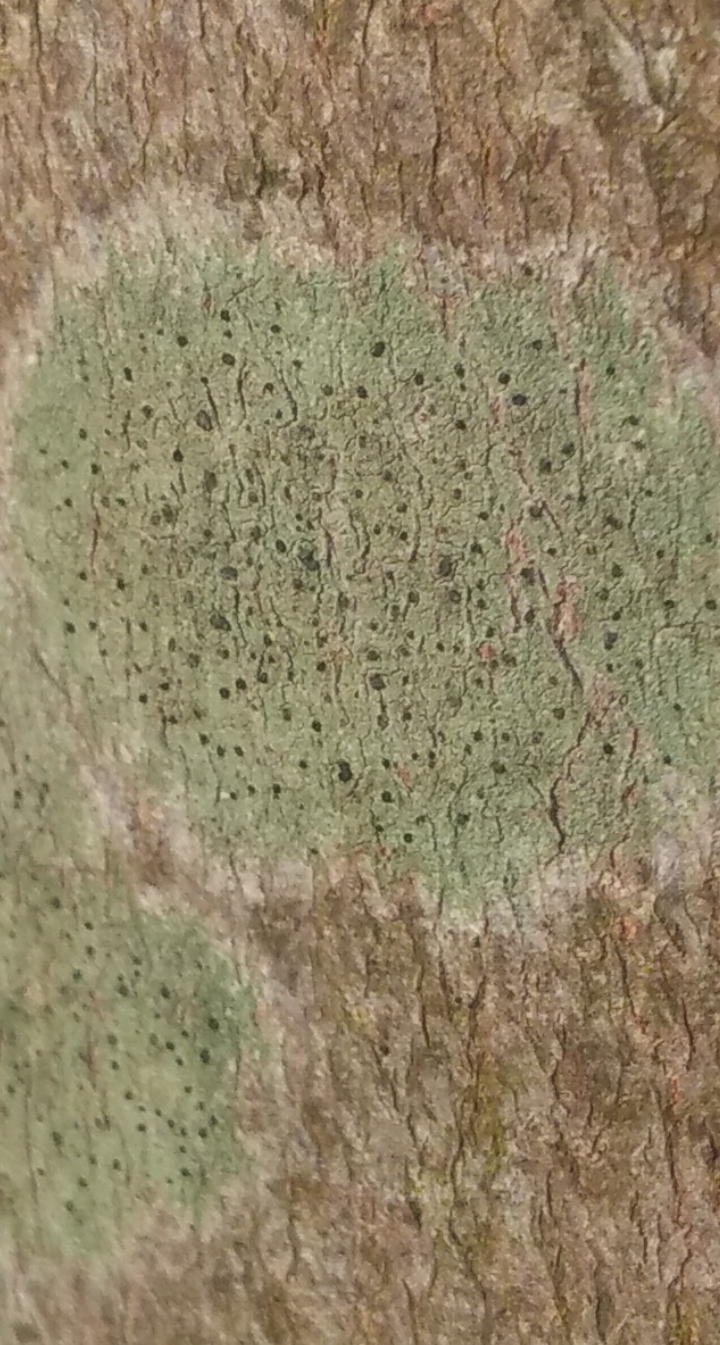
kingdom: Fungi
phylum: Ascomycota
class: Lecanoromycetes
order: Lecanorales
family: Parmeliaceae
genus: Lichen
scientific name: Lichen
